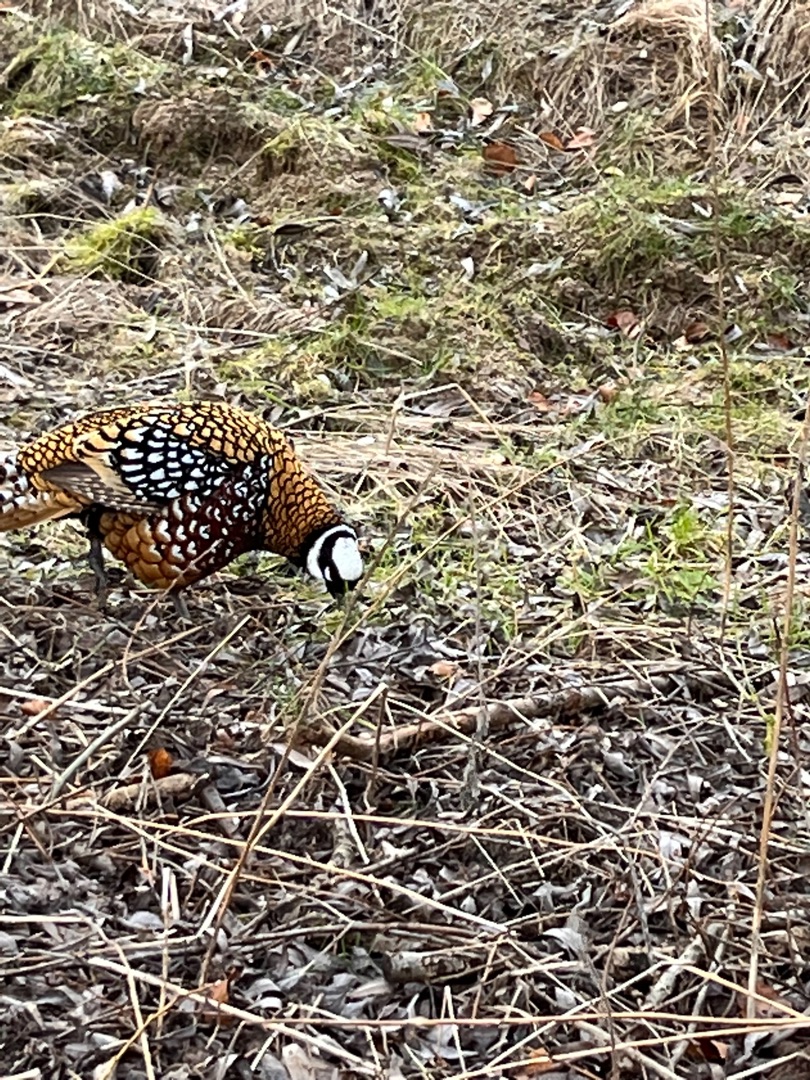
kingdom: Animalia
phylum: Chordata
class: Aves
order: Galliformes
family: Phasianidae
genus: Syrmaticus
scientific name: Syrmaticus reevesii
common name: Kongefasan
